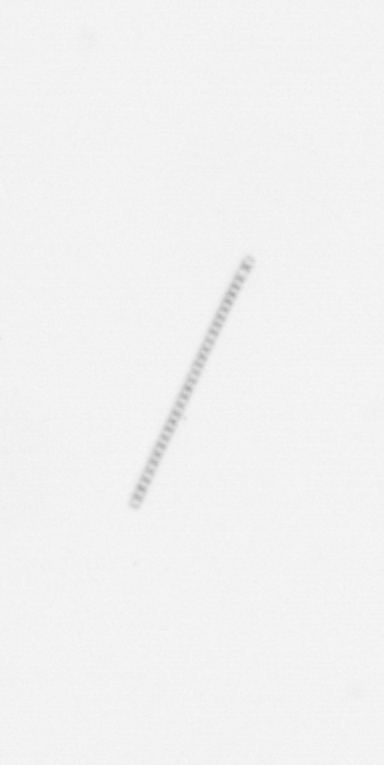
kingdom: Chromista
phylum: Ochrophyta
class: Bacillariophyceae
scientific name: Bacillariophyceae
